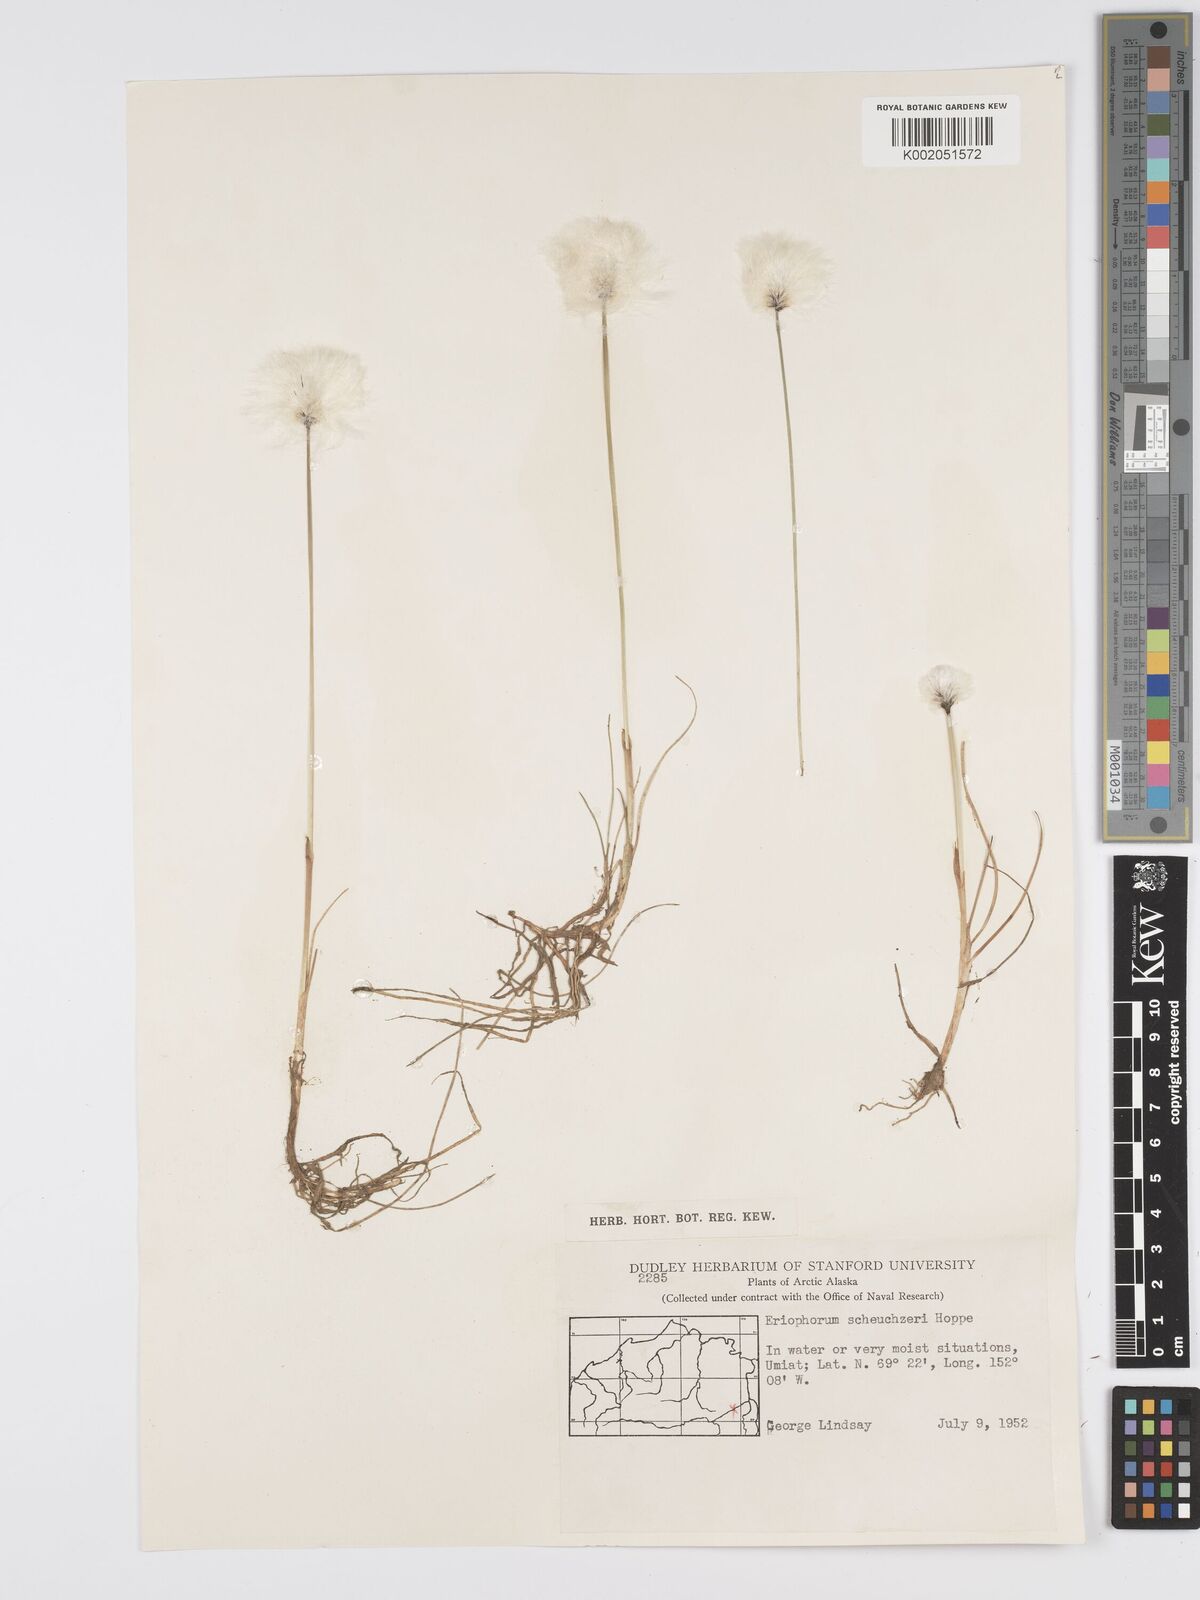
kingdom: Plantae
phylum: Tracheophyta
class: Liliopsida
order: Poales
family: Cyperaceae
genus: Eriophorum
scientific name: Eriophorum scheuchzeri
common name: Scheuchzer's cottongrass
